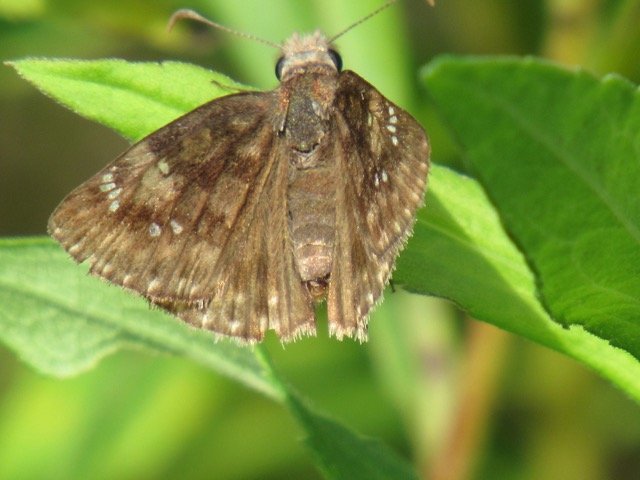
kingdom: Animalia
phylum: Arthropoda
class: Insecta
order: Lepidoptera
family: Hesperiidae
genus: Gesta
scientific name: Gesta
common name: Wild Indigo Duskywing
